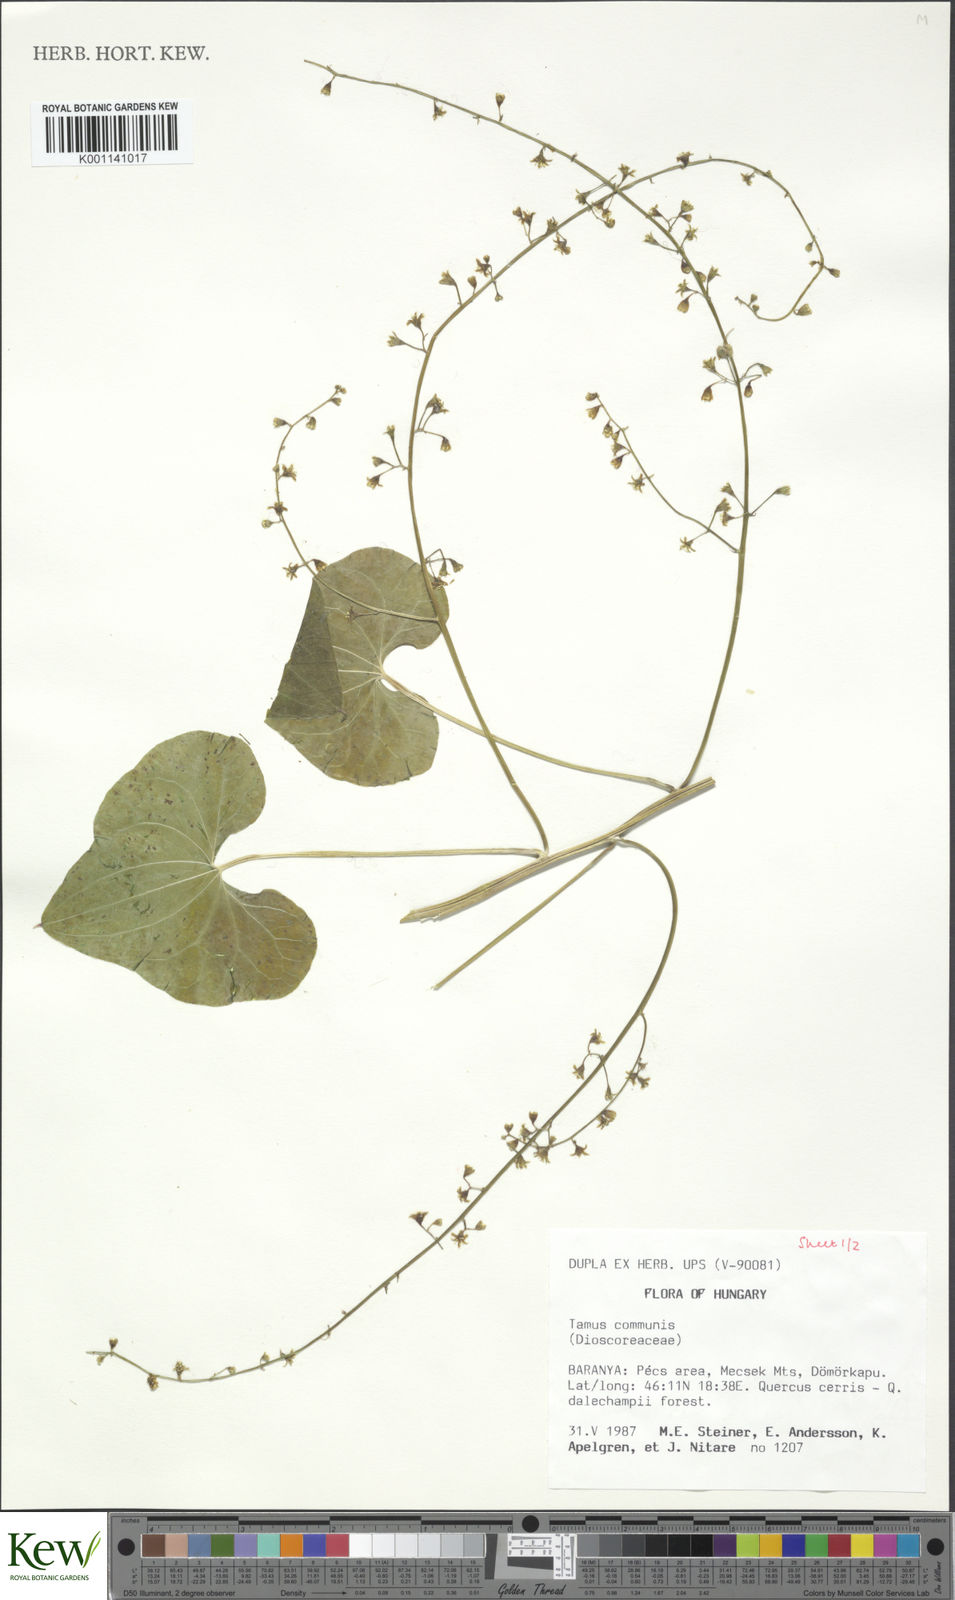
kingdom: Plantae
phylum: Tracheophyta
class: Liliopsida
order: Dioscoreales
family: Dioscoreaceae
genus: Dioscorea
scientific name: Dioscorea communis
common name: Black-bindweed
